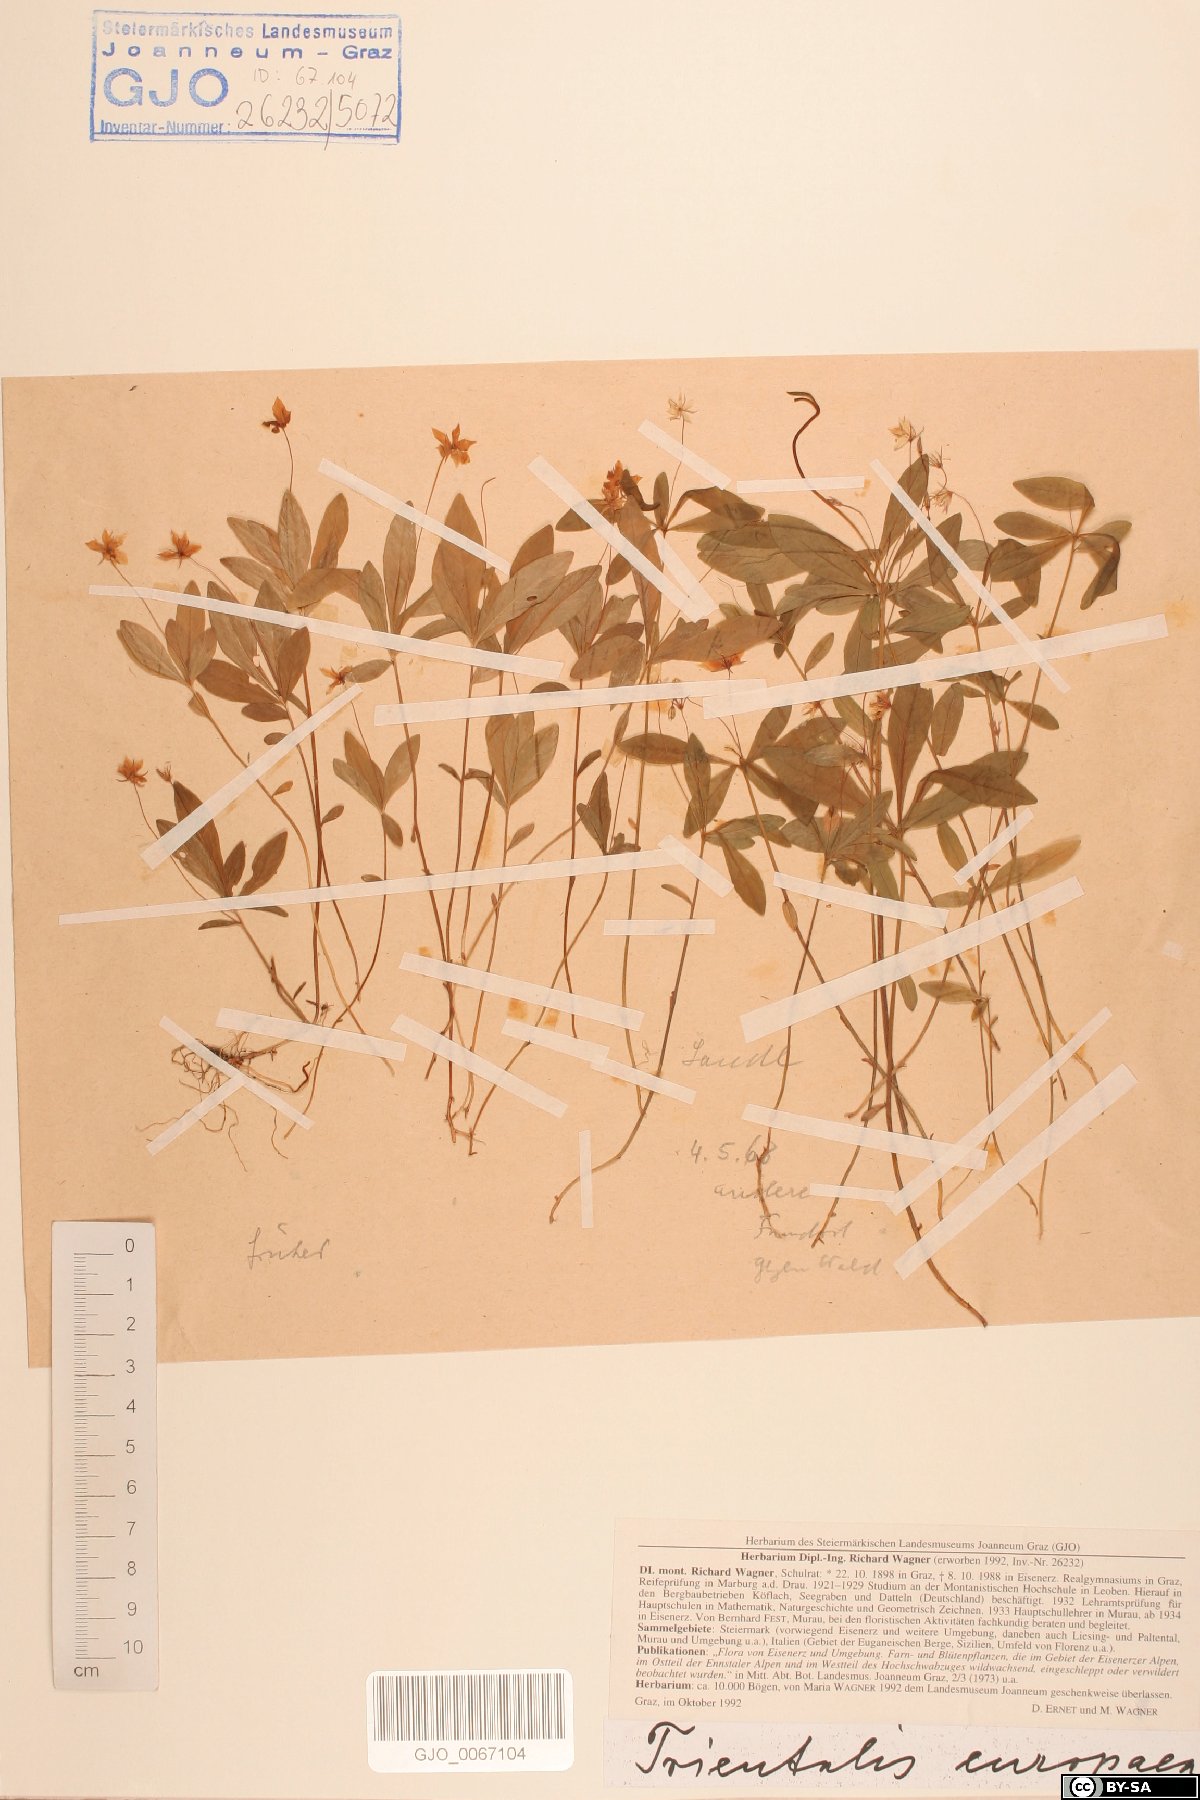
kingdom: Plantae
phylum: Tracheophyta
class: Magnoliopsida
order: Ericales
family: Primulaceae
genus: Lysimachia
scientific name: Lysimachia europaea
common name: Arctic starflower
